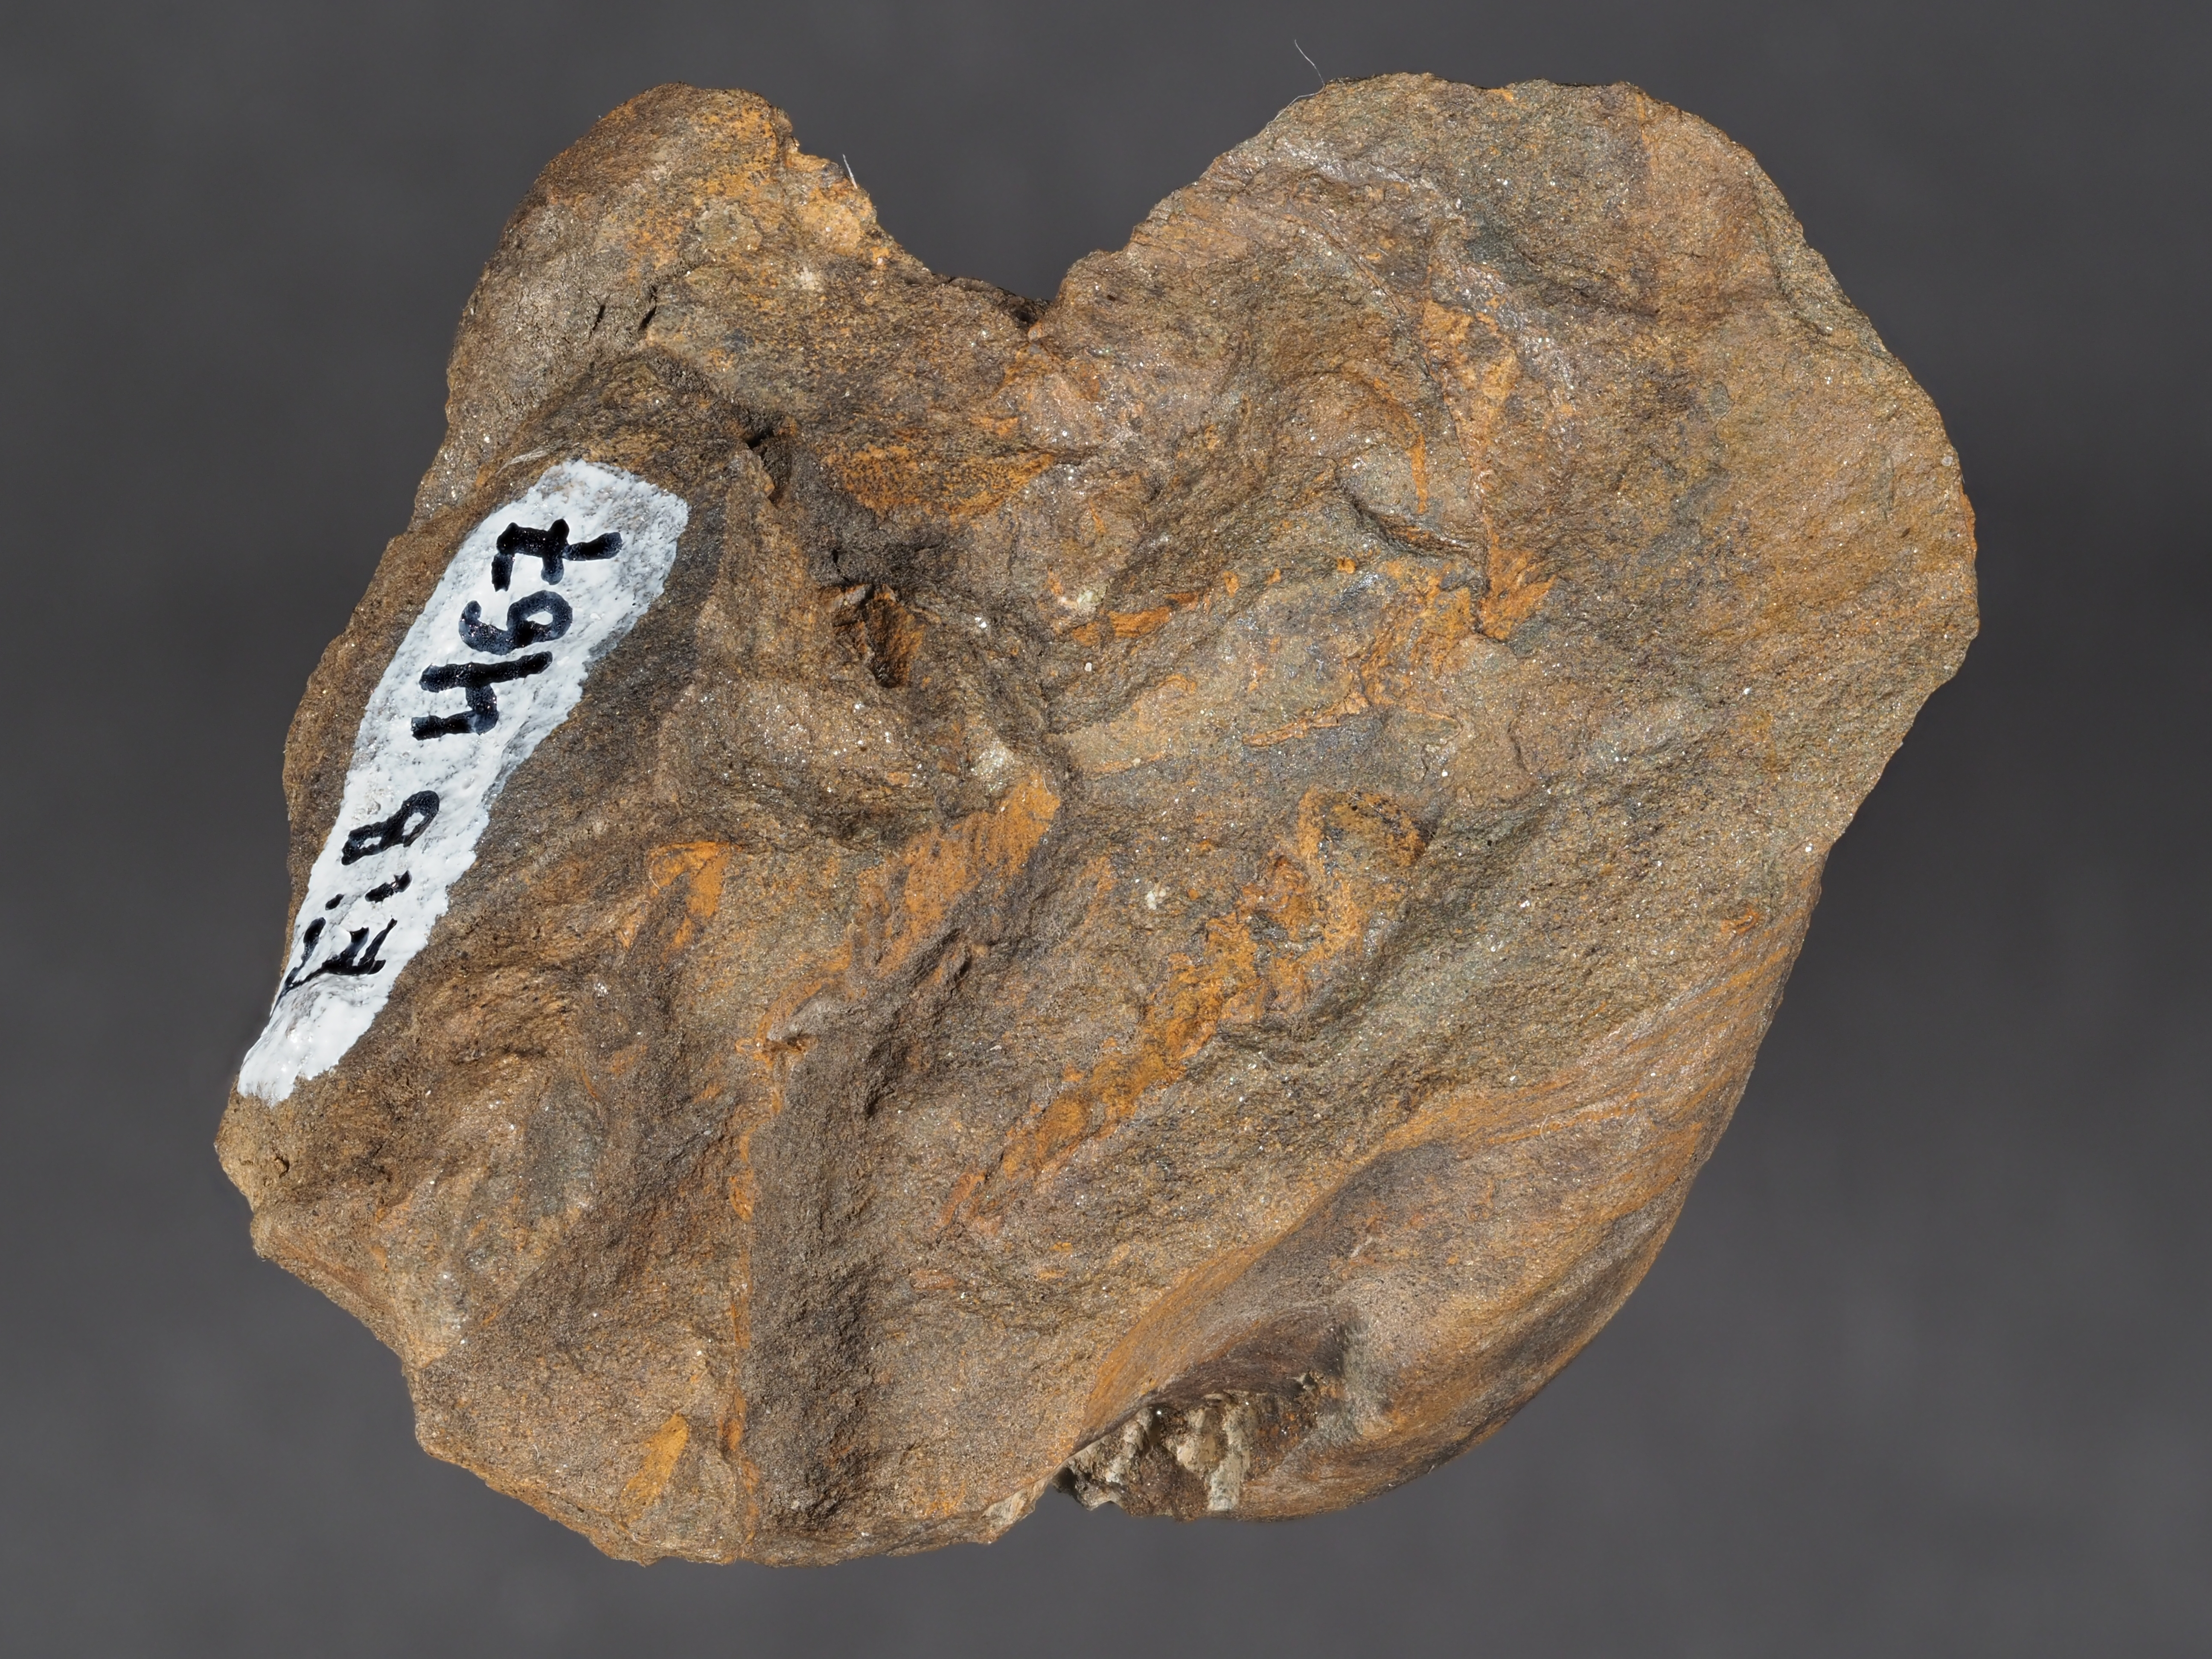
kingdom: Animalia
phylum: Mollusca
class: Bivalvia
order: Ostreida
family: Pterineidae
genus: Leptodesma
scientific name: Leptodesma
